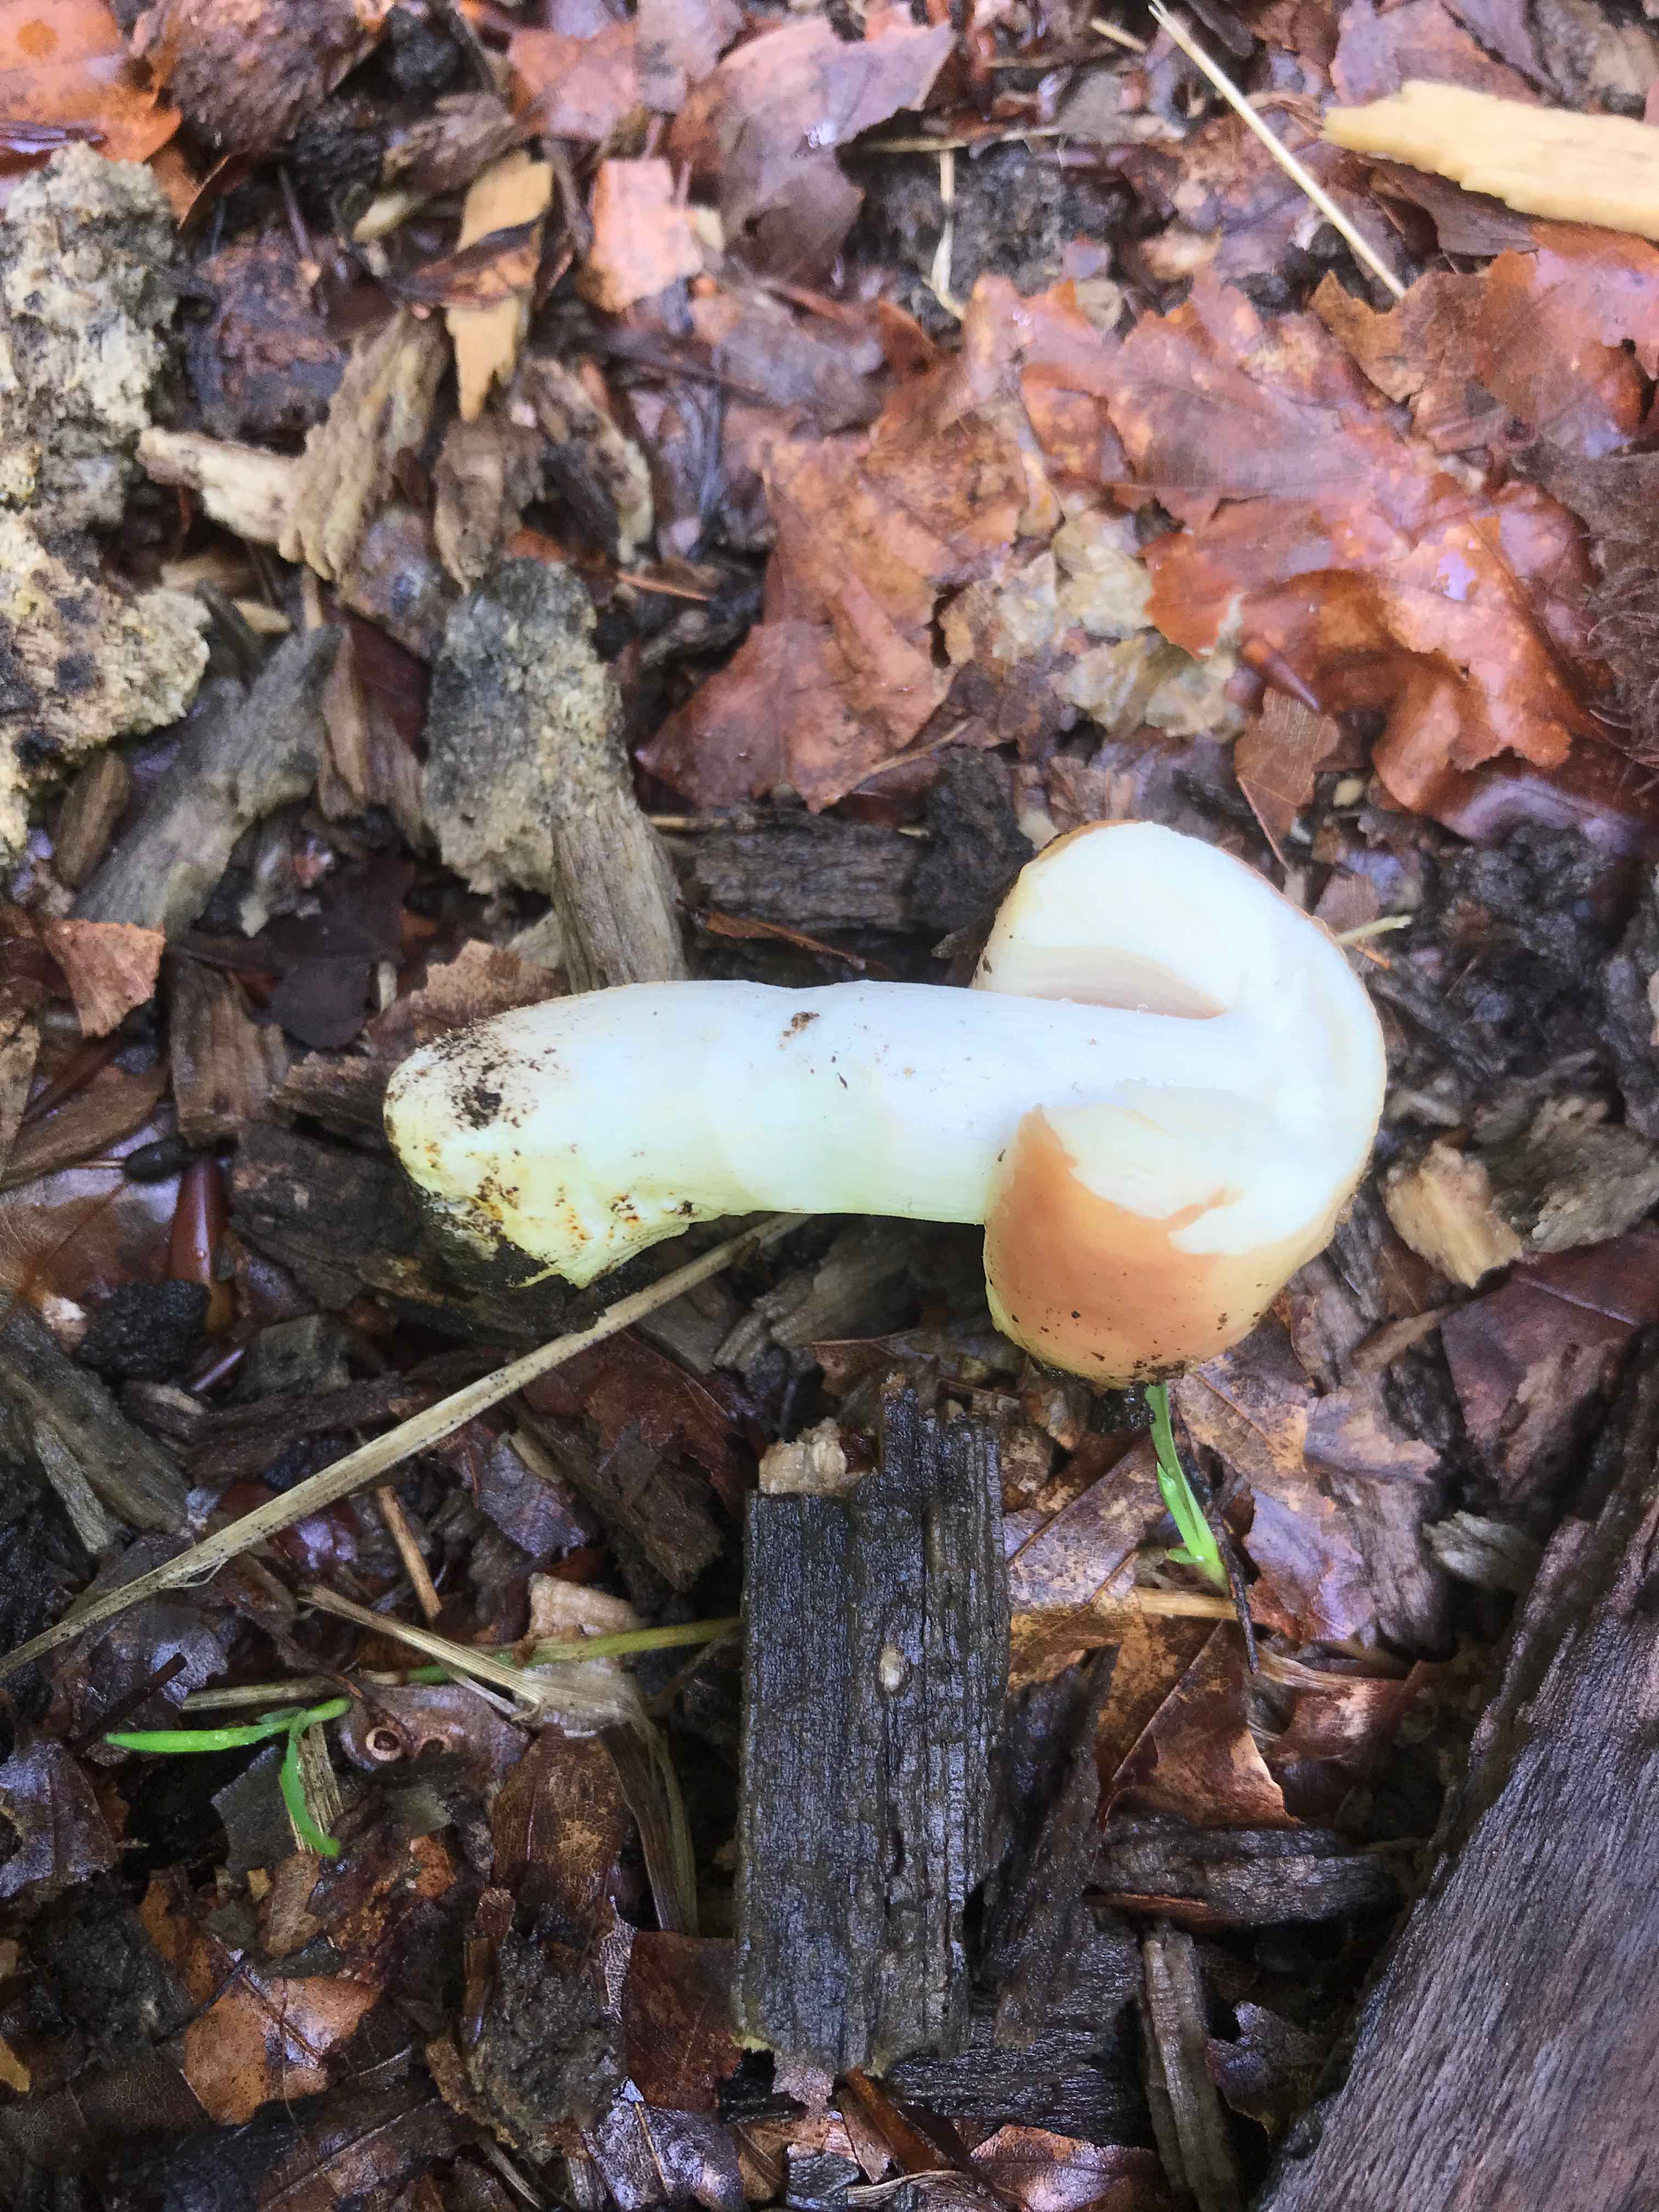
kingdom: Fungi
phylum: Basidiomycota
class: Agaricomycetes
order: Russulales
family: Russulaceae
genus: Russula
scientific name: Russula rosea
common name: fastkødet skørhat
